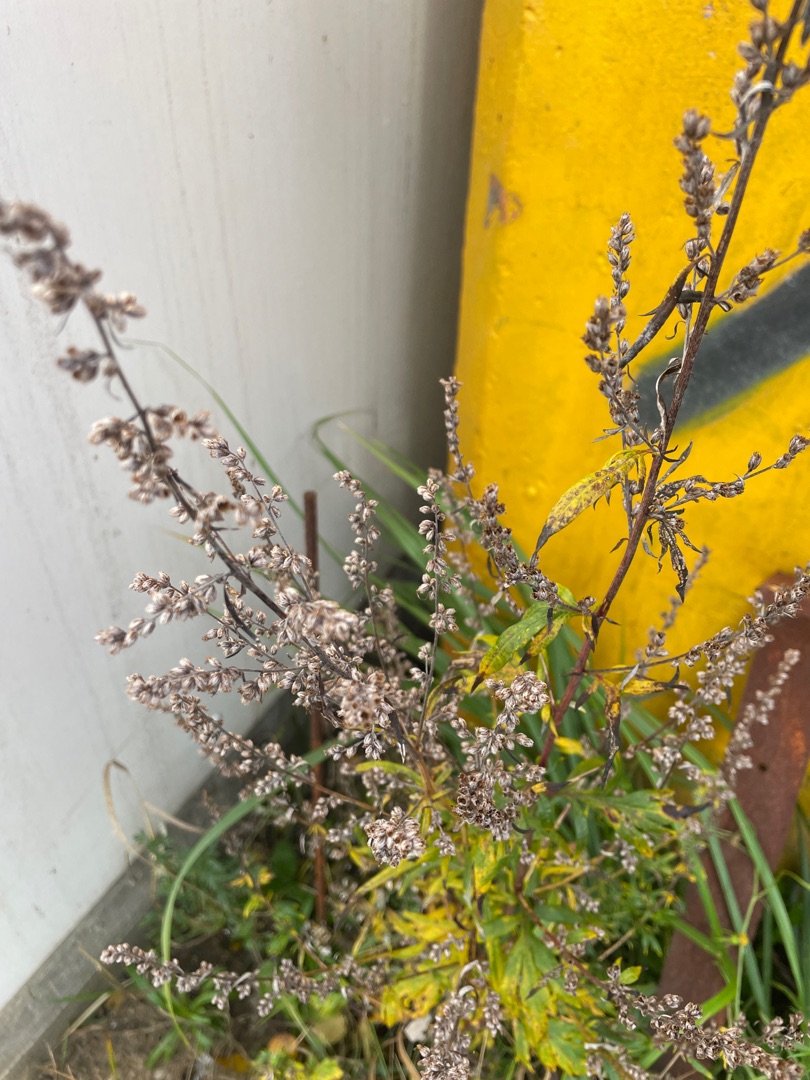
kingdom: Plantae
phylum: Tracheophyta
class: Magnoliopsida
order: Asterales
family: Asteraceae
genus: Artemisia
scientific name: Artemisia vulgaris
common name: Grå-bynke
